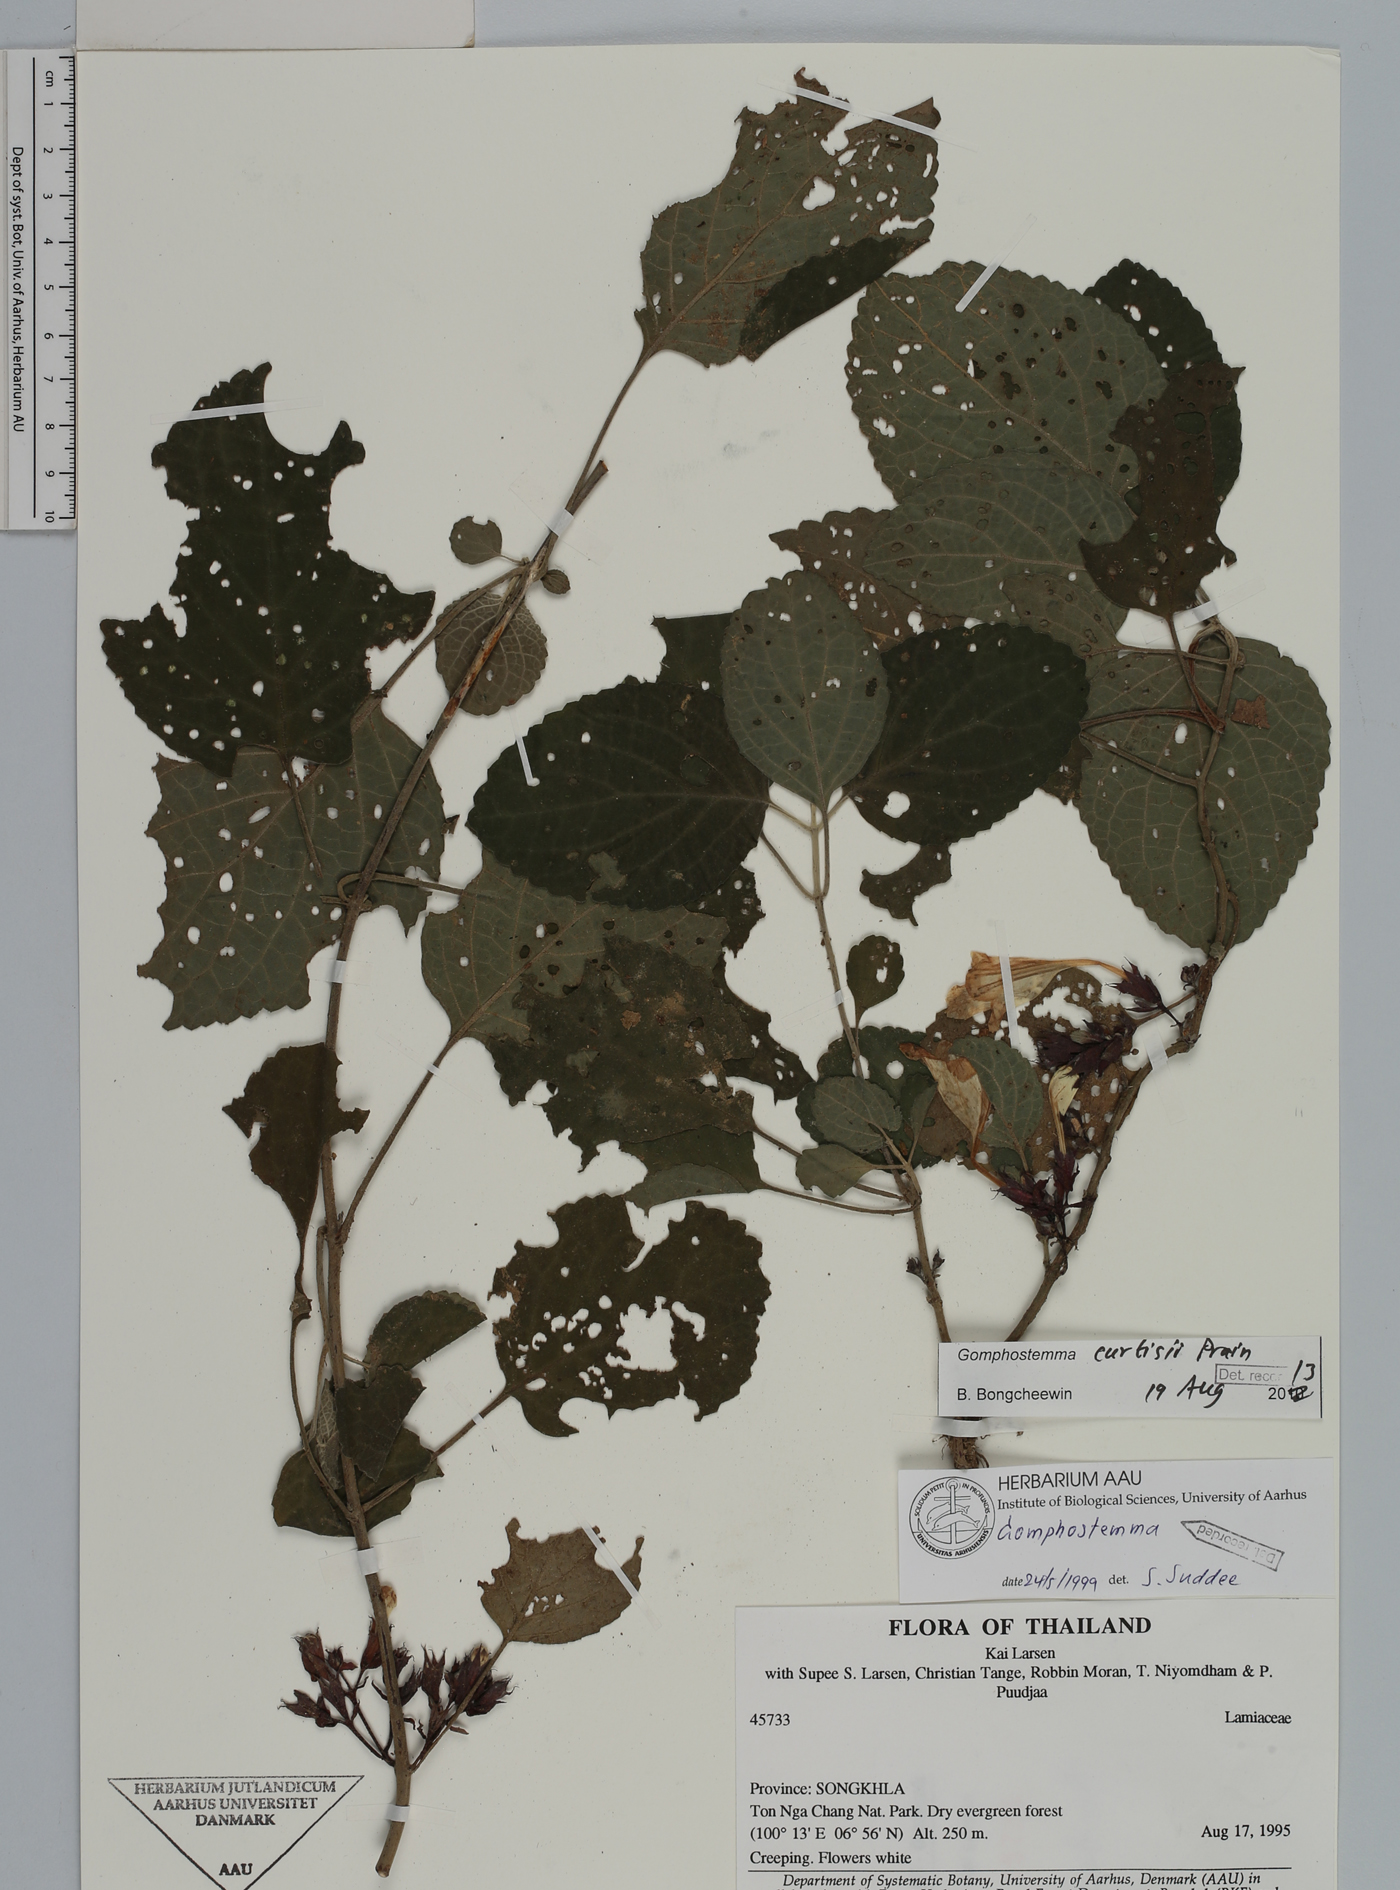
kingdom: Plantae
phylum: Tracheophyta
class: Magnoliopsida
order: Lamiales
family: Lamiaceae
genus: Gomphostemma
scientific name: Gomphostemma curtisii
